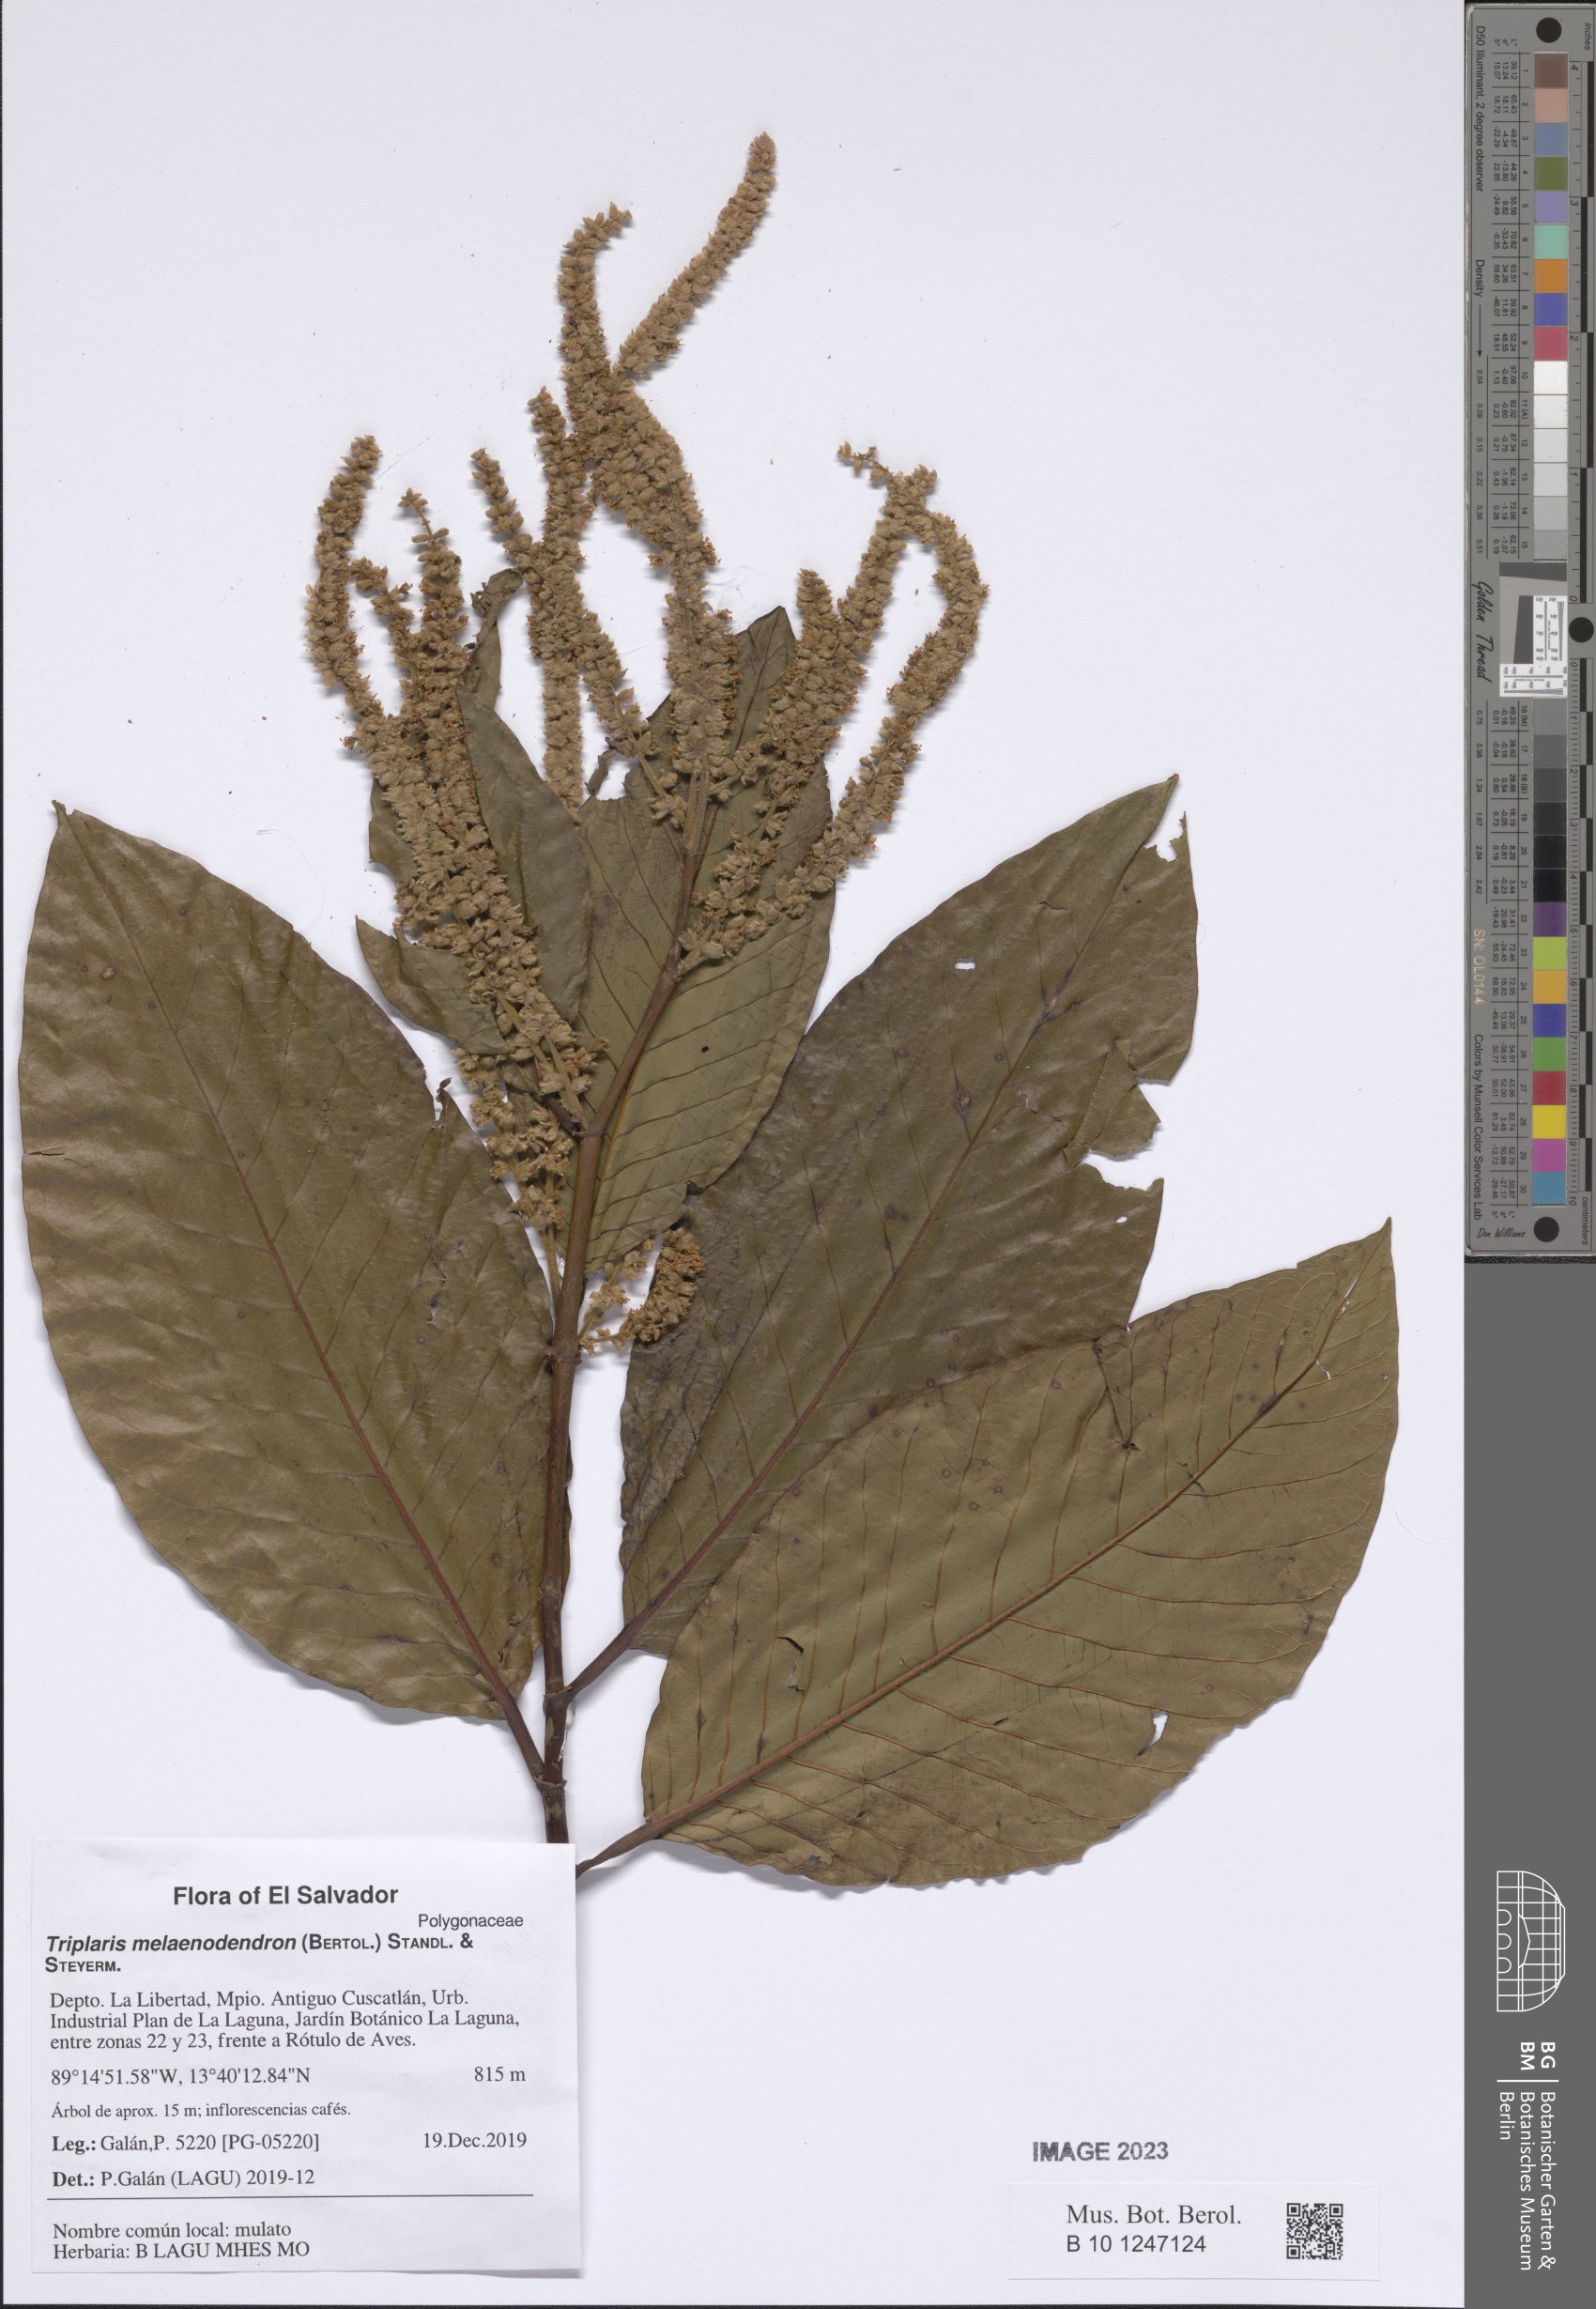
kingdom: Plantae
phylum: Tracheophyta
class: Magnoliopsida
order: Caryophyllales
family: Polygonaceae
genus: Triplaris
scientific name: Triplaris melaenodendron
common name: Long john
